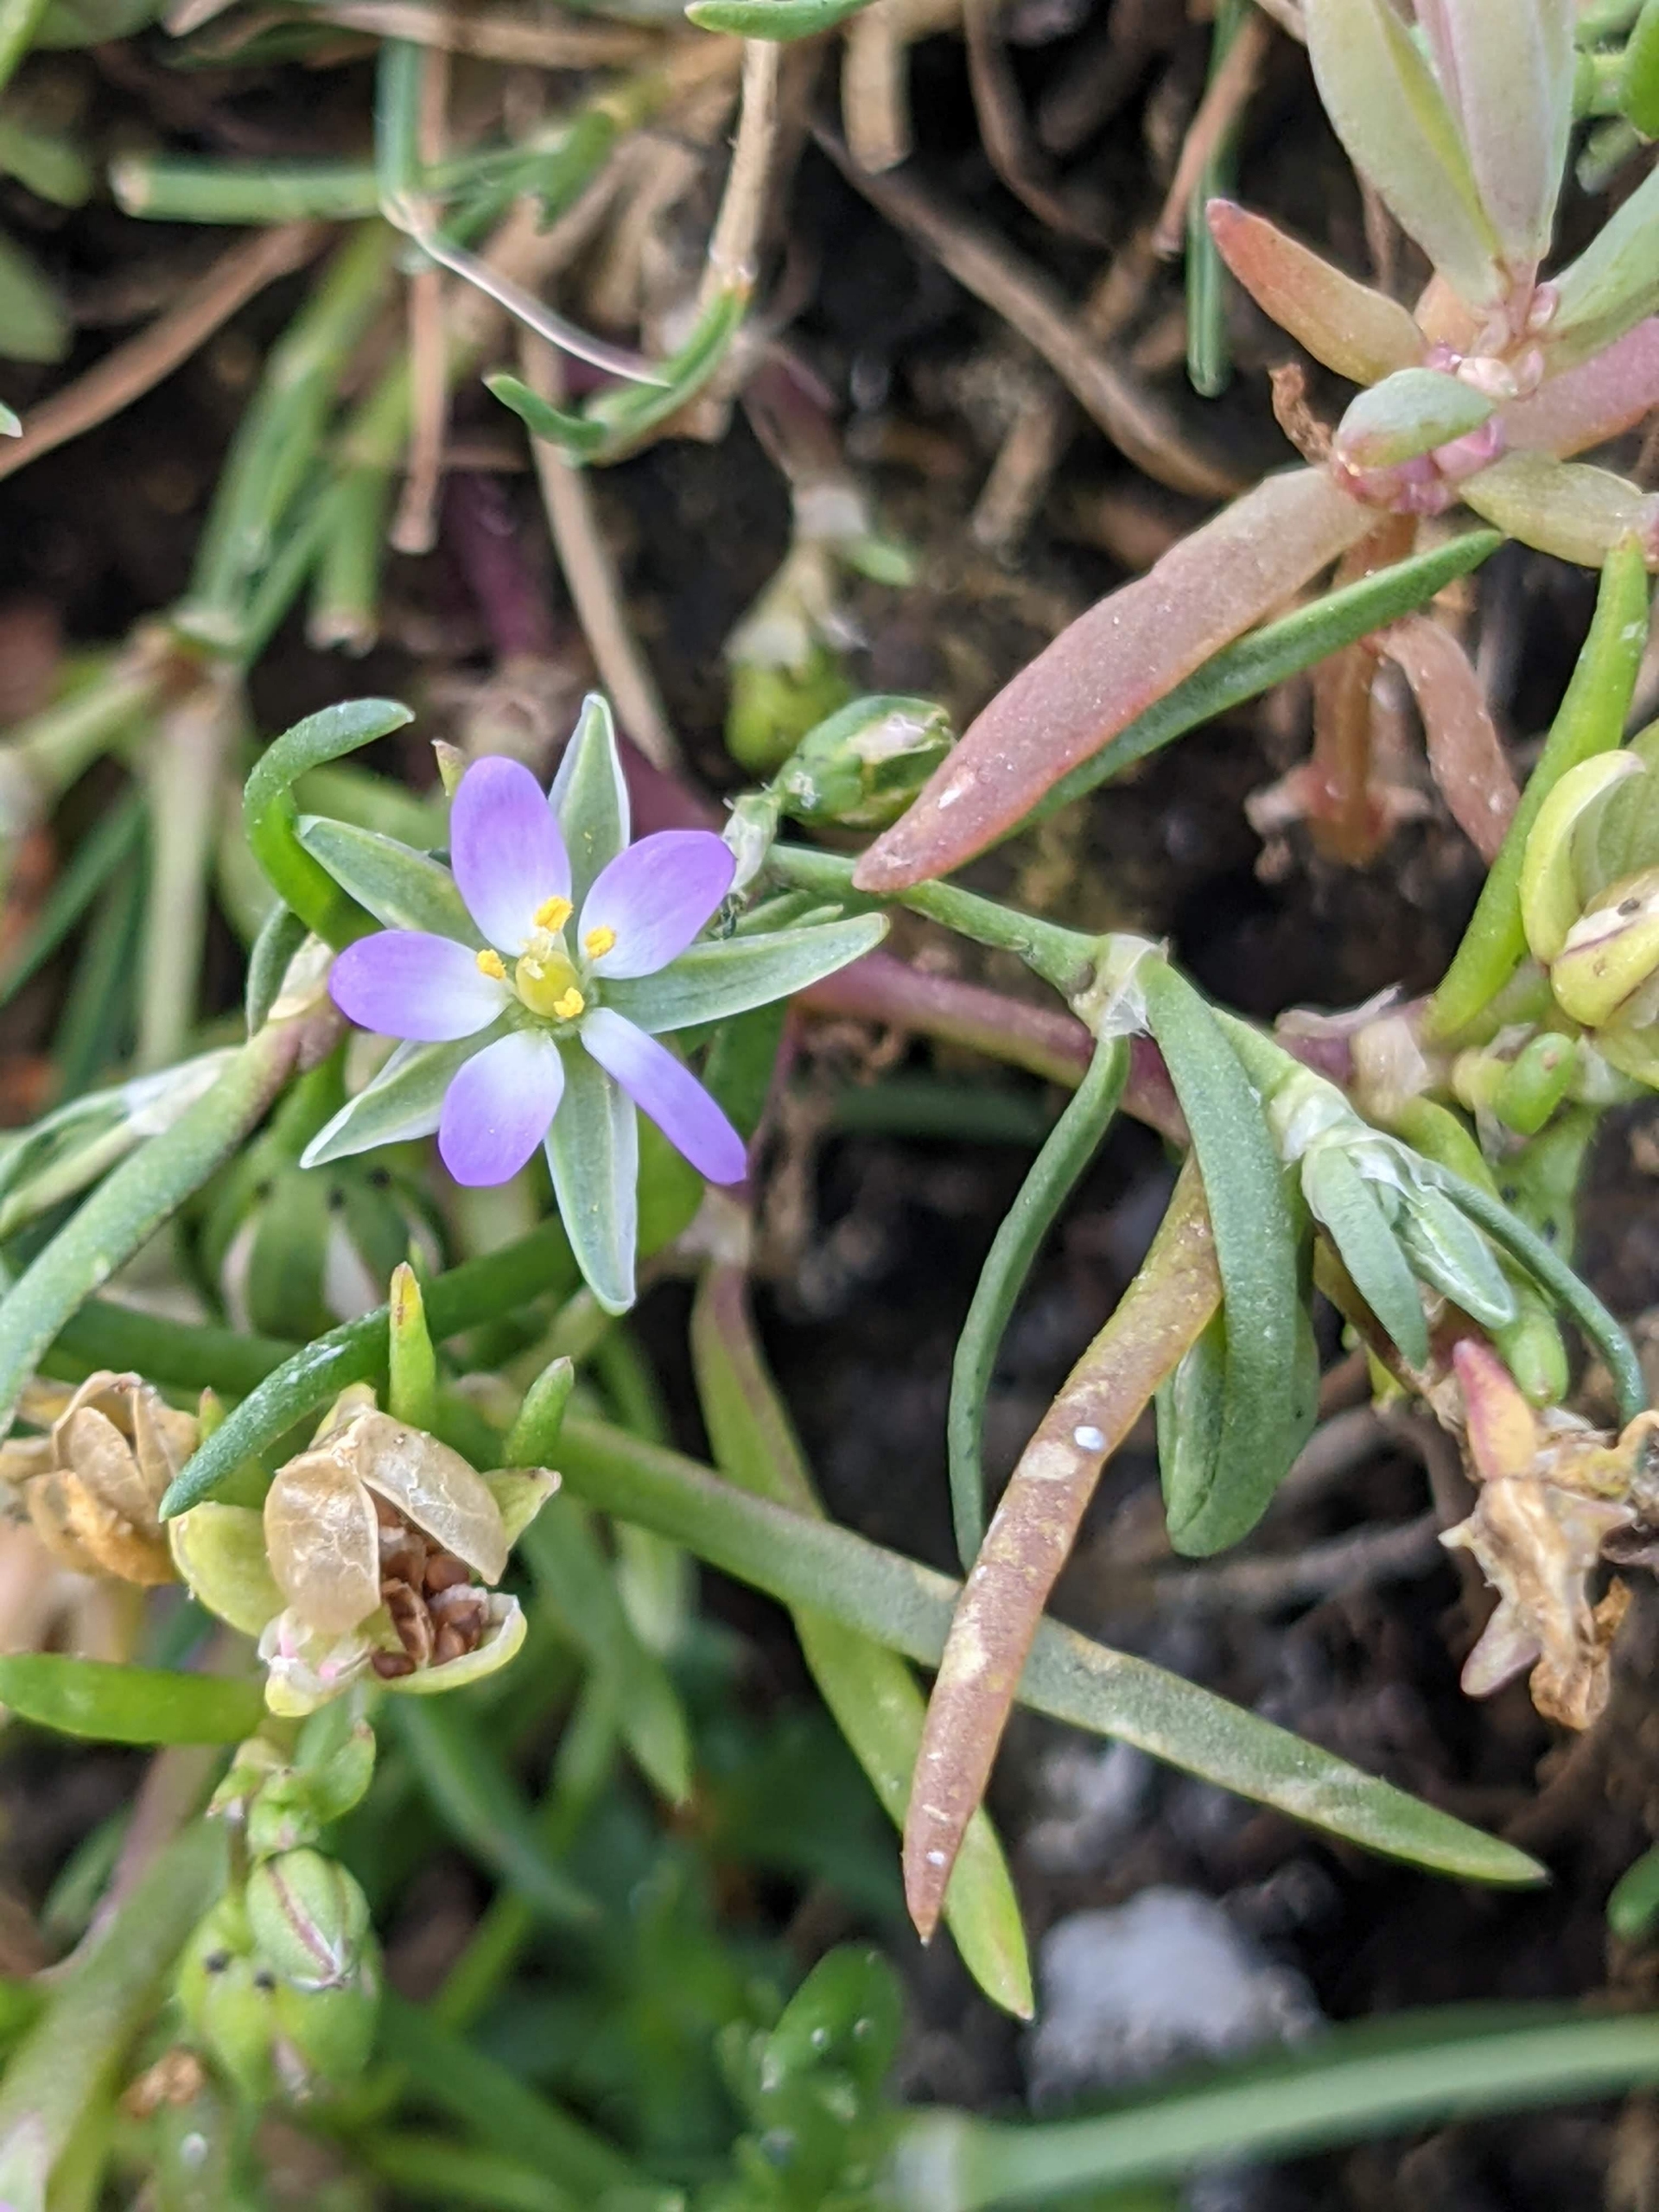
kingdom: Plantae
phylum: Tracheophyta
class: Magnoliopsida
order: Caryophyllales
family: Caryophyllaceae
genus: Spergularia
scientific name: Spergularia marina
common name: Kødet hindeknæ
